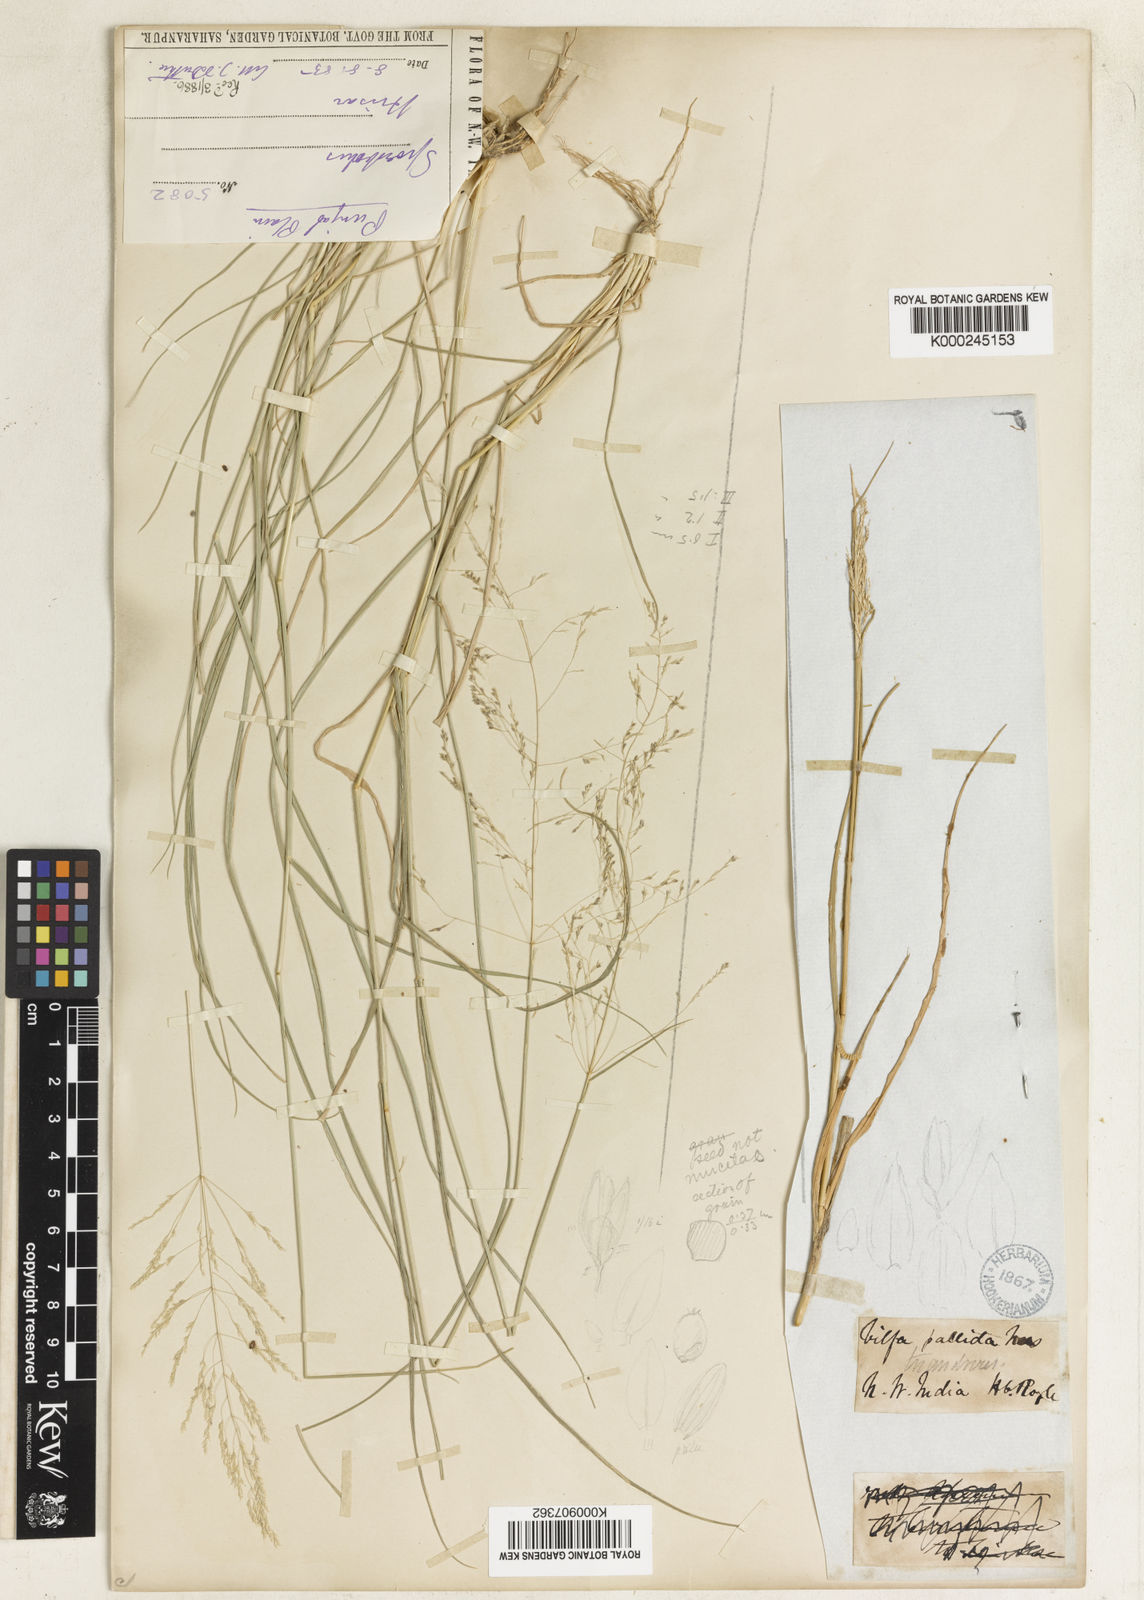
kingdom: Plantae
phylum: Tracheophyta
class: Liliopsida
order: Poales
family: Poaceae
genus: Sporobolus
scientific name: Sporobolus ioclados
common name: Pan dropseed
